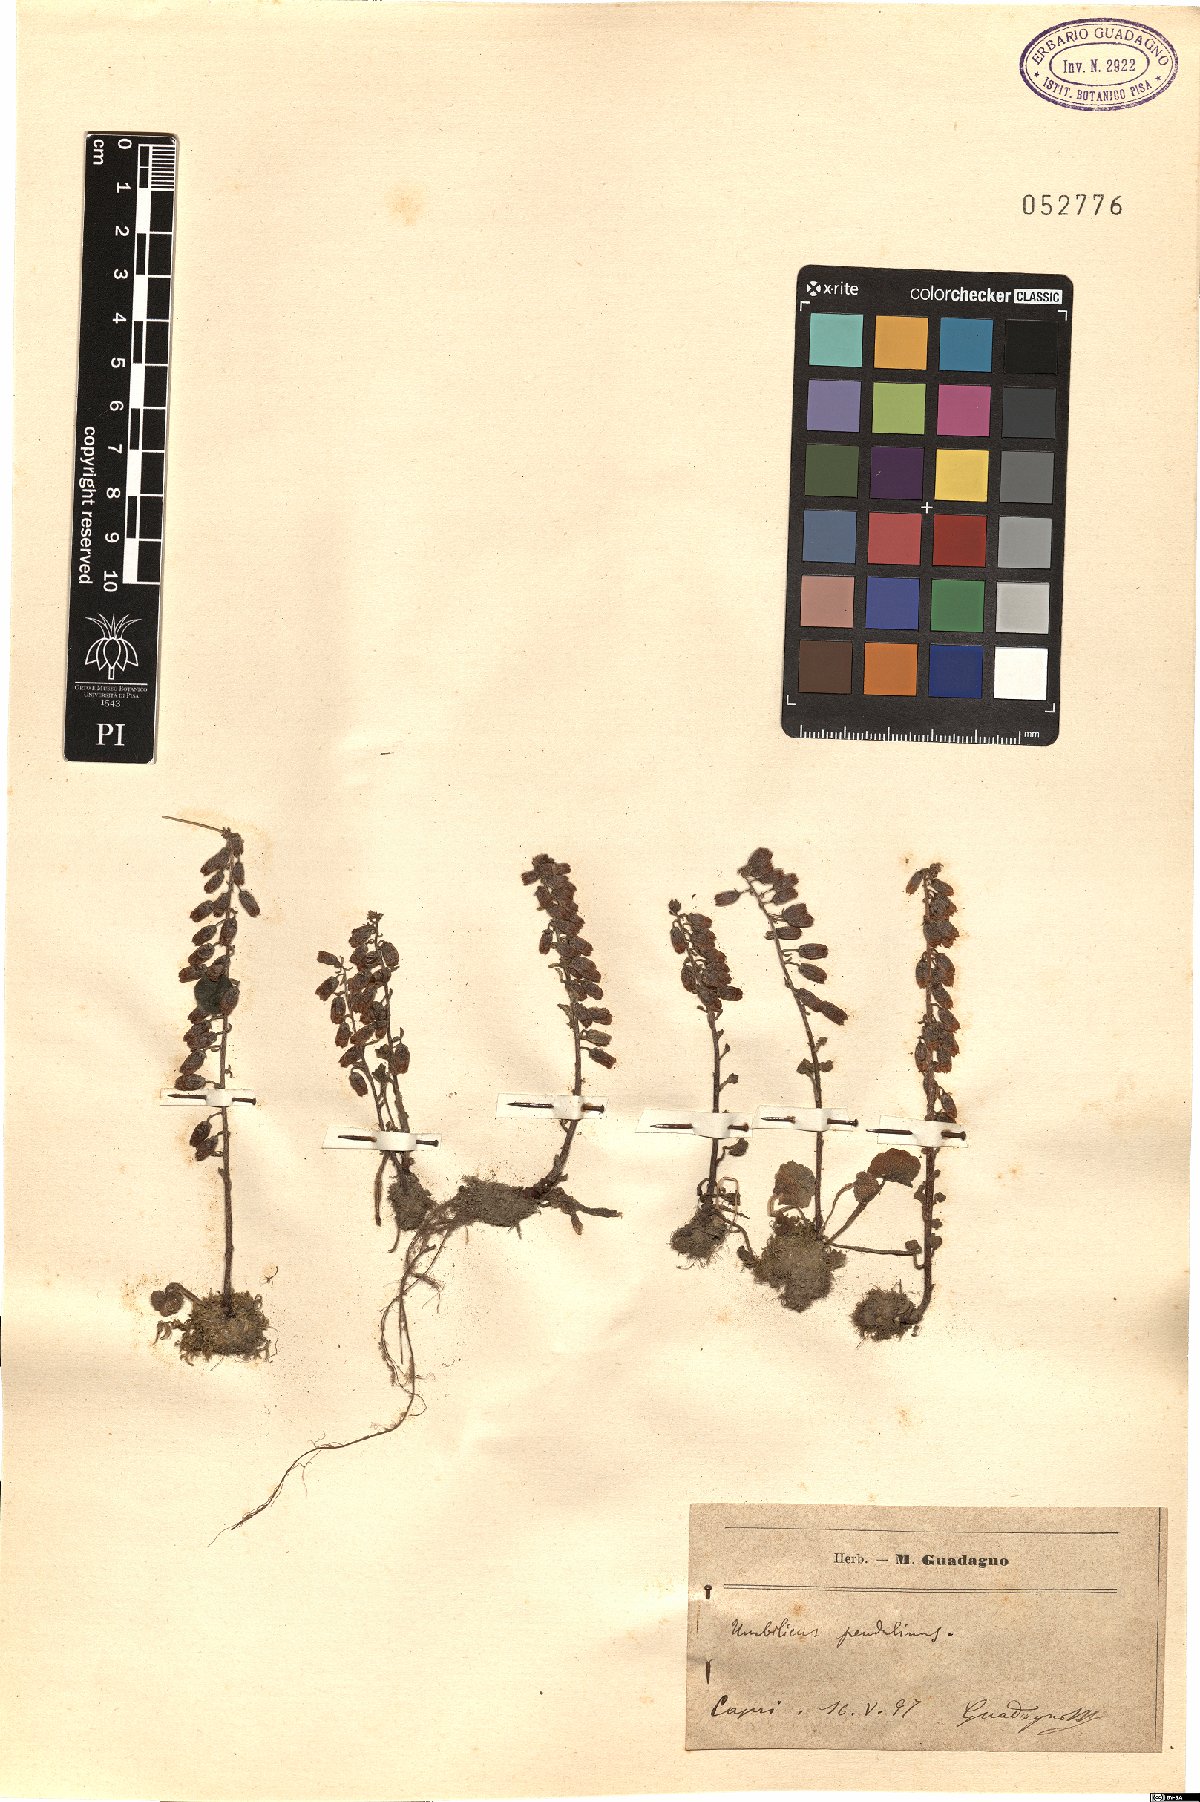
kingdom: Plantae
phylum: Tracheophyta
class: Magnoliopsida
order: Saxifragales
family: Crassulaceae
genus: Umbilicus
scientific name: Umbilicus rupestris
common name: Navelwort
